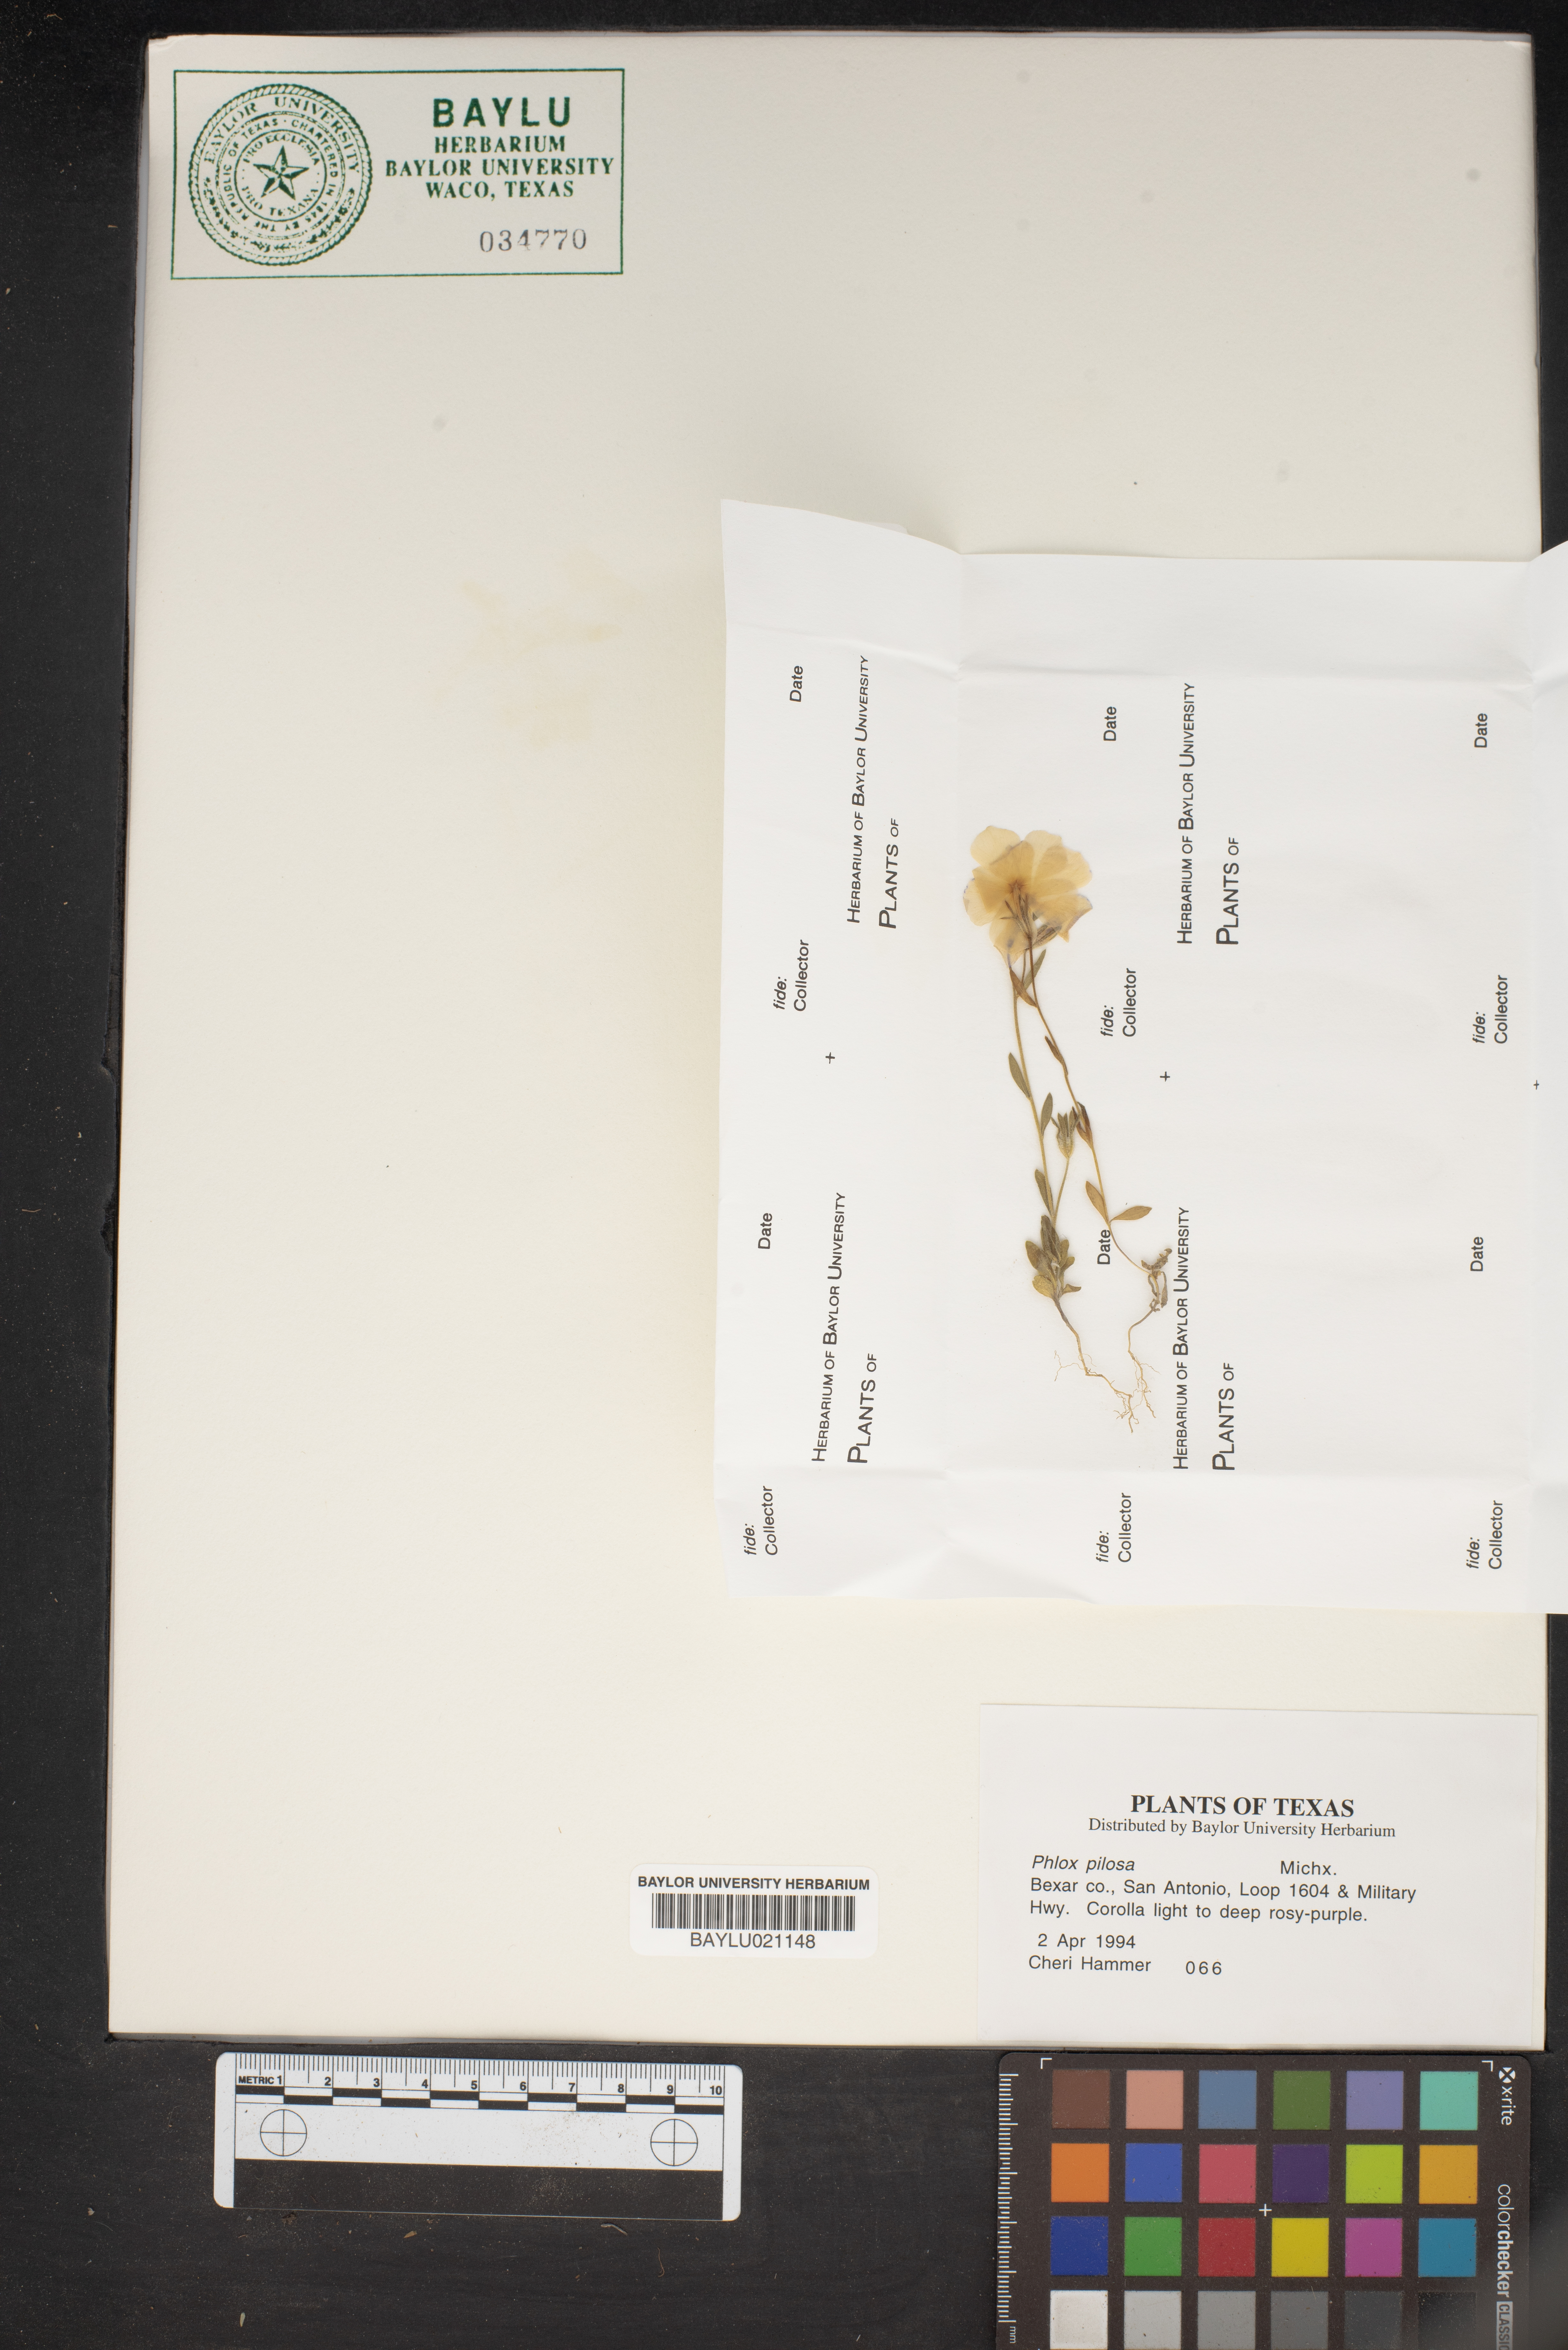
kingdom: Plantae
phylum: Tracheophyta
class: Magnoliopsida
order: Ericales
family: Polemoniaceae
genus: Phlox
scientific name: Phlox pilosa
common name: Prairie phlox
